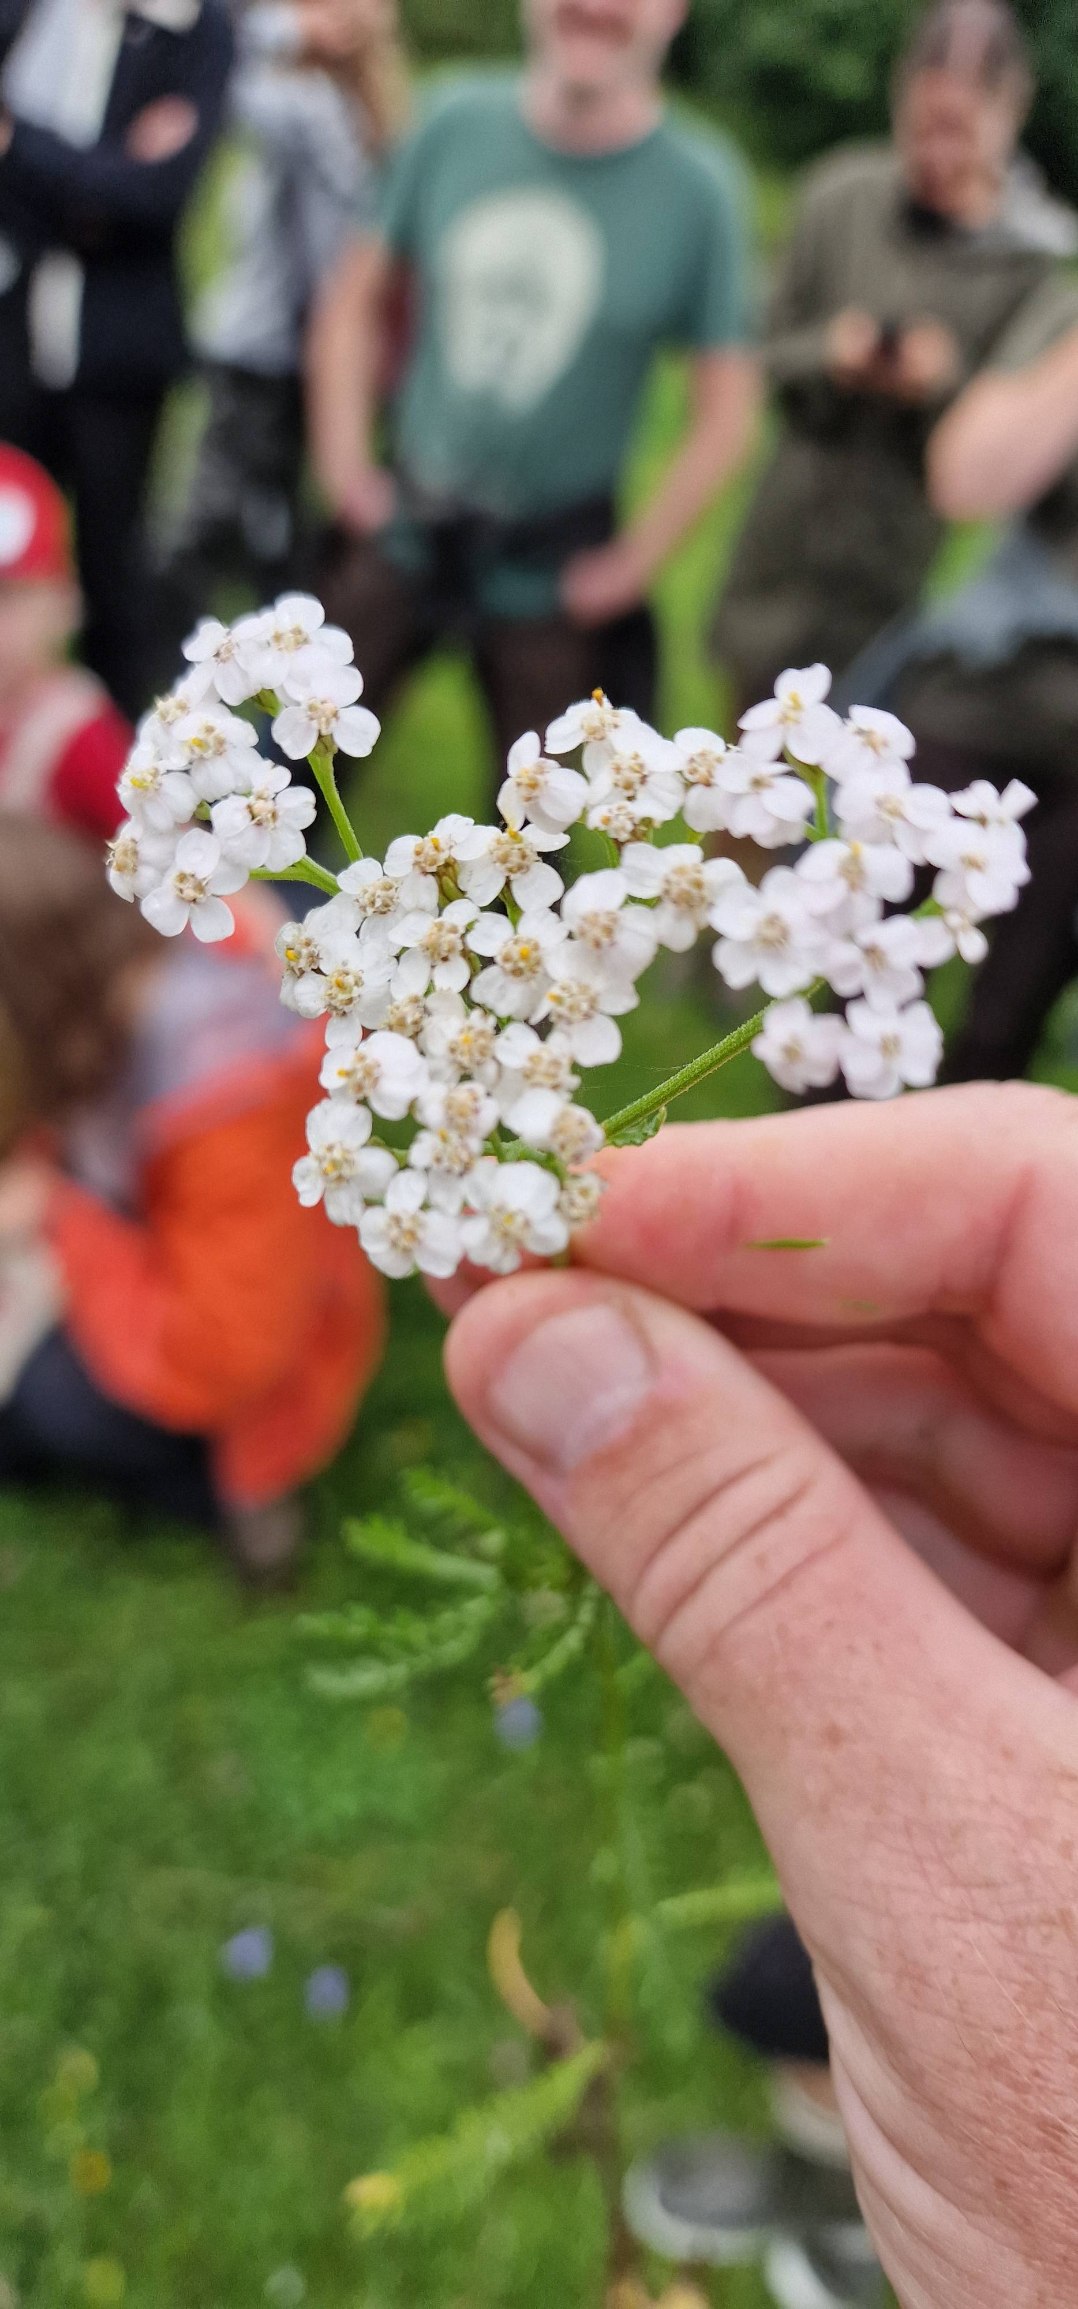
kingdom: Plantae
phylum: Tracheophyta
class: Magnoliopsida
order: Asterales
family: Asteraceae
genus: Achillea
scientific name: Achillea millefolium
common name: Almindelig røllike
